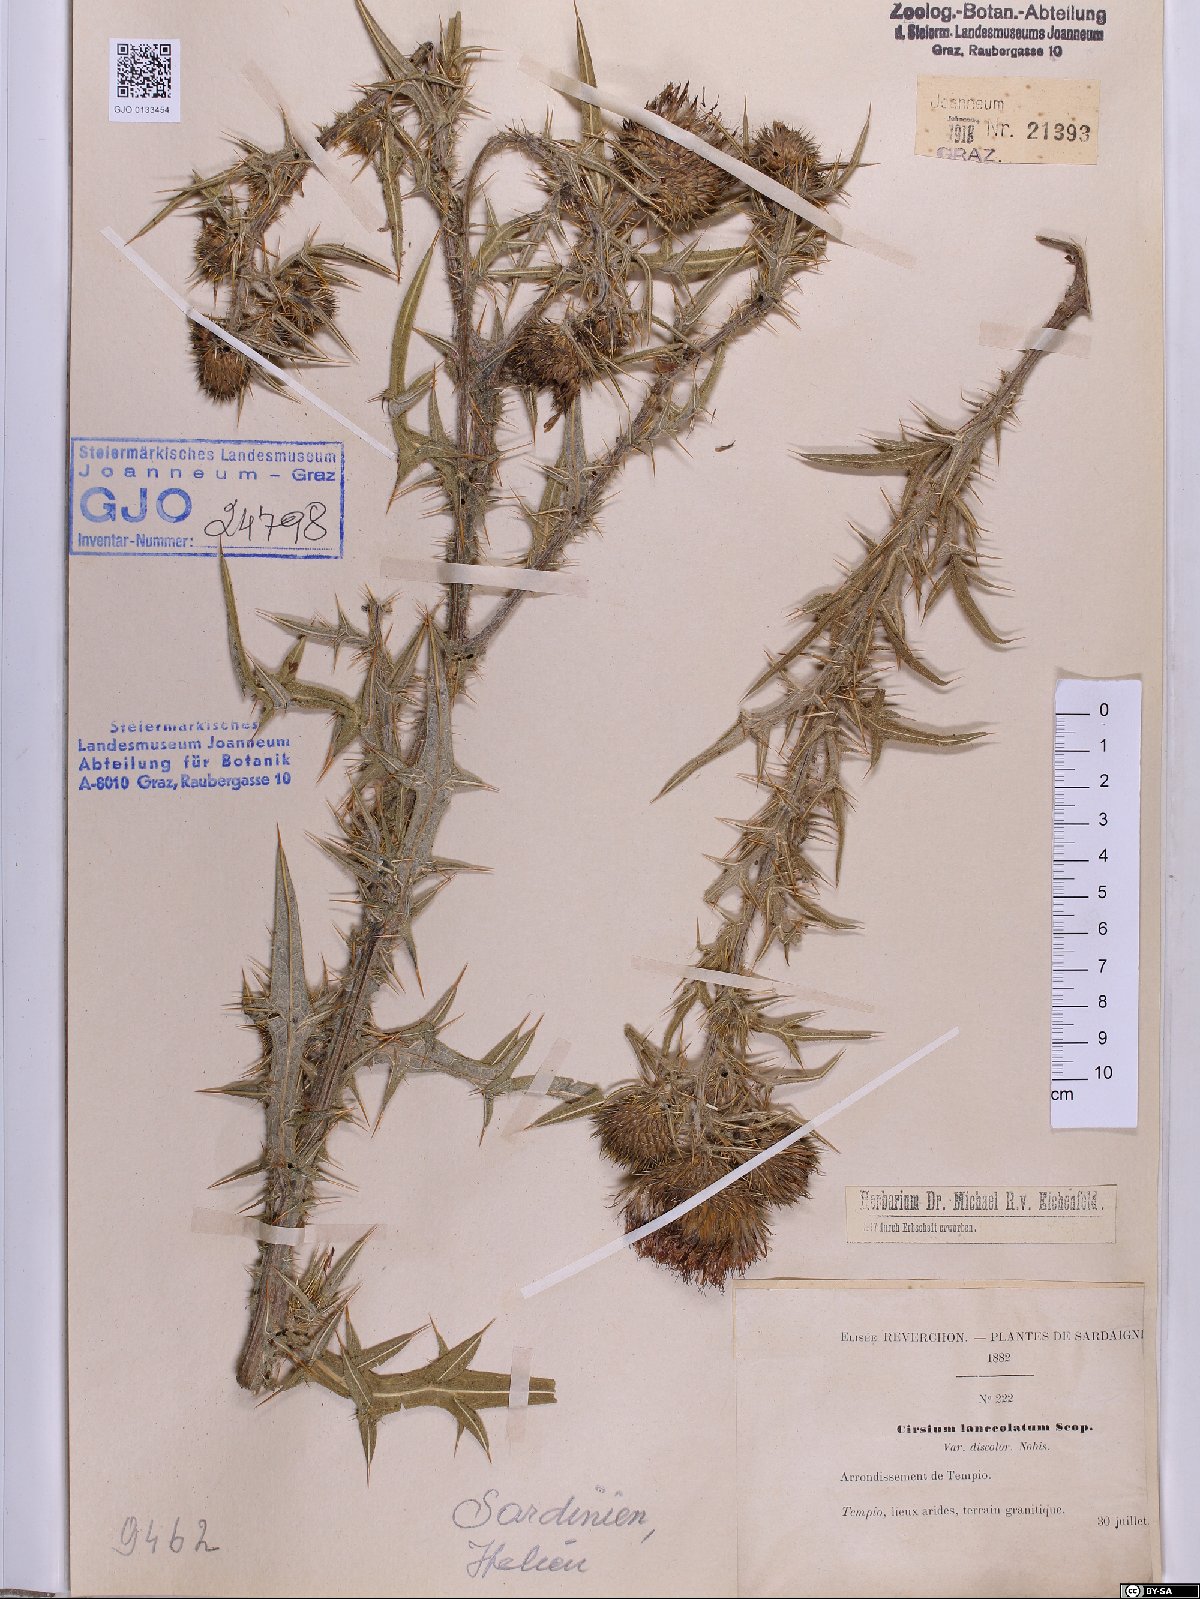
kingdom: Plantae
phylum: Tracheophyta
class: Magnoliopsida
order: Asterales
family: Asteraceae
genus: Cirsium
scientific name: Cirsium vulgare
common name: Bull thistle
